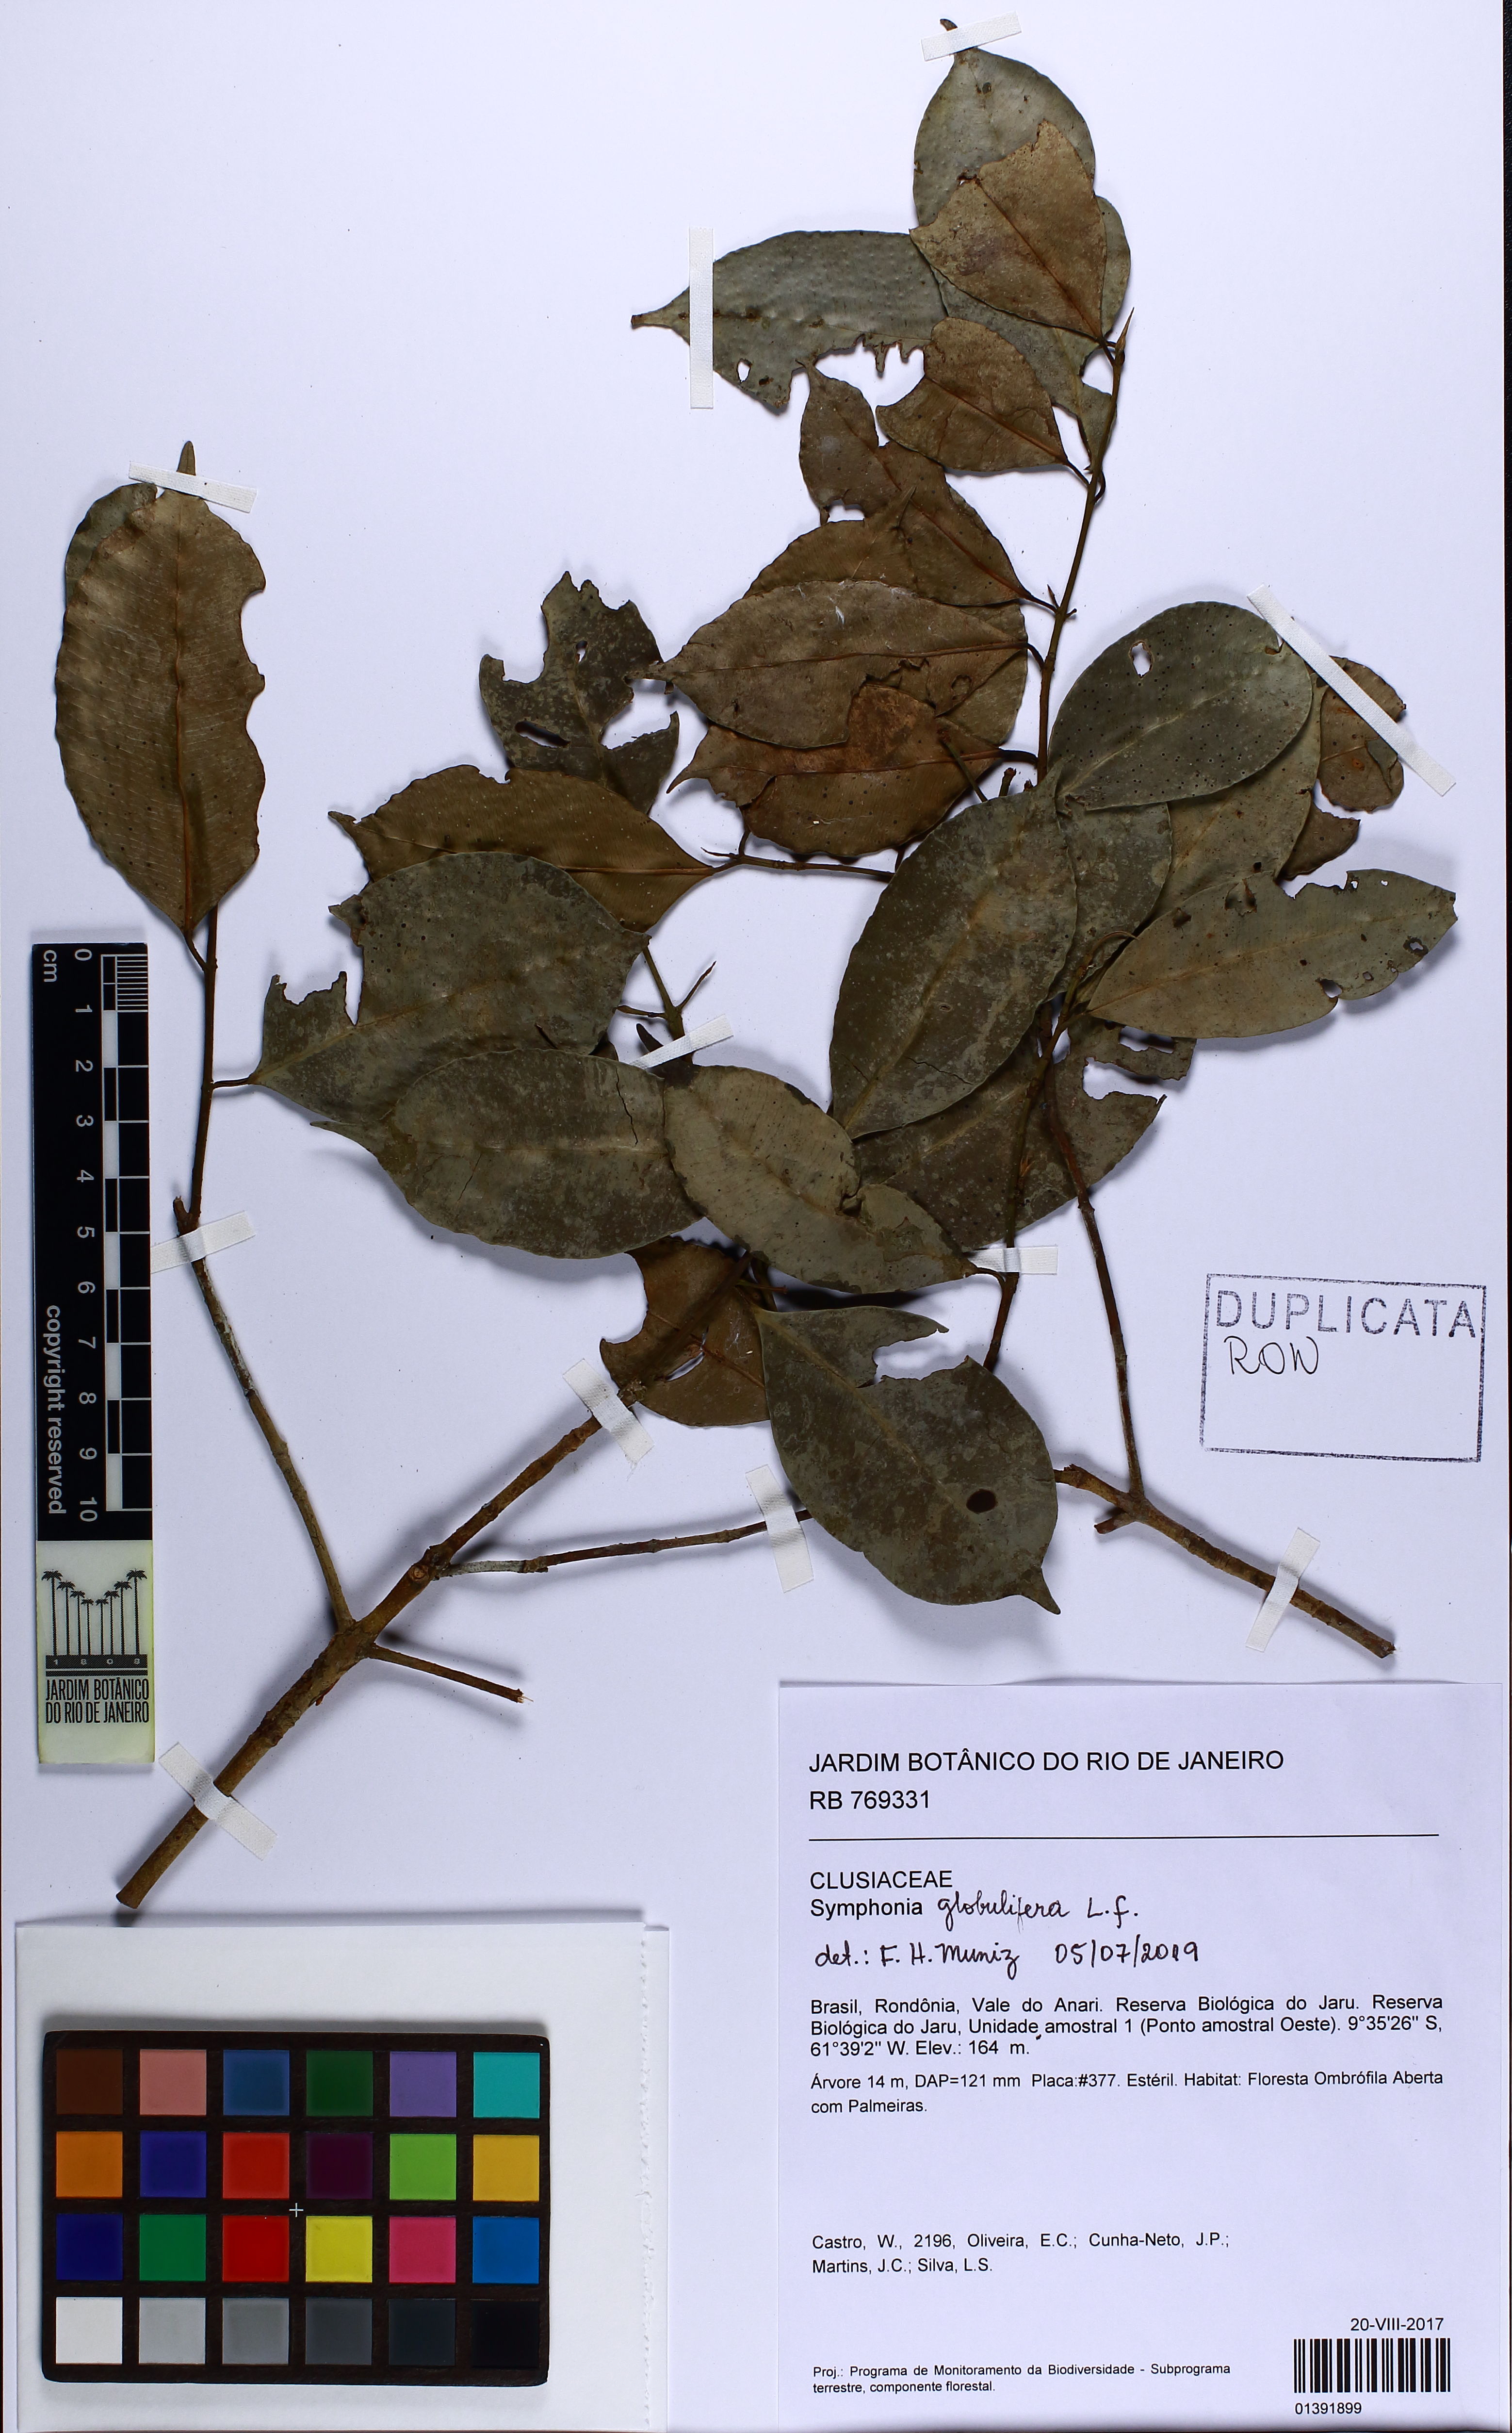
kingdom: Plantae
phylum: Tracheophyta
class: Magnoliopsida
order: Malpighiales
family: Clusiaceae
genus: Symphonia
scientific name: Symphonia globulifera
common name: Boarwood
